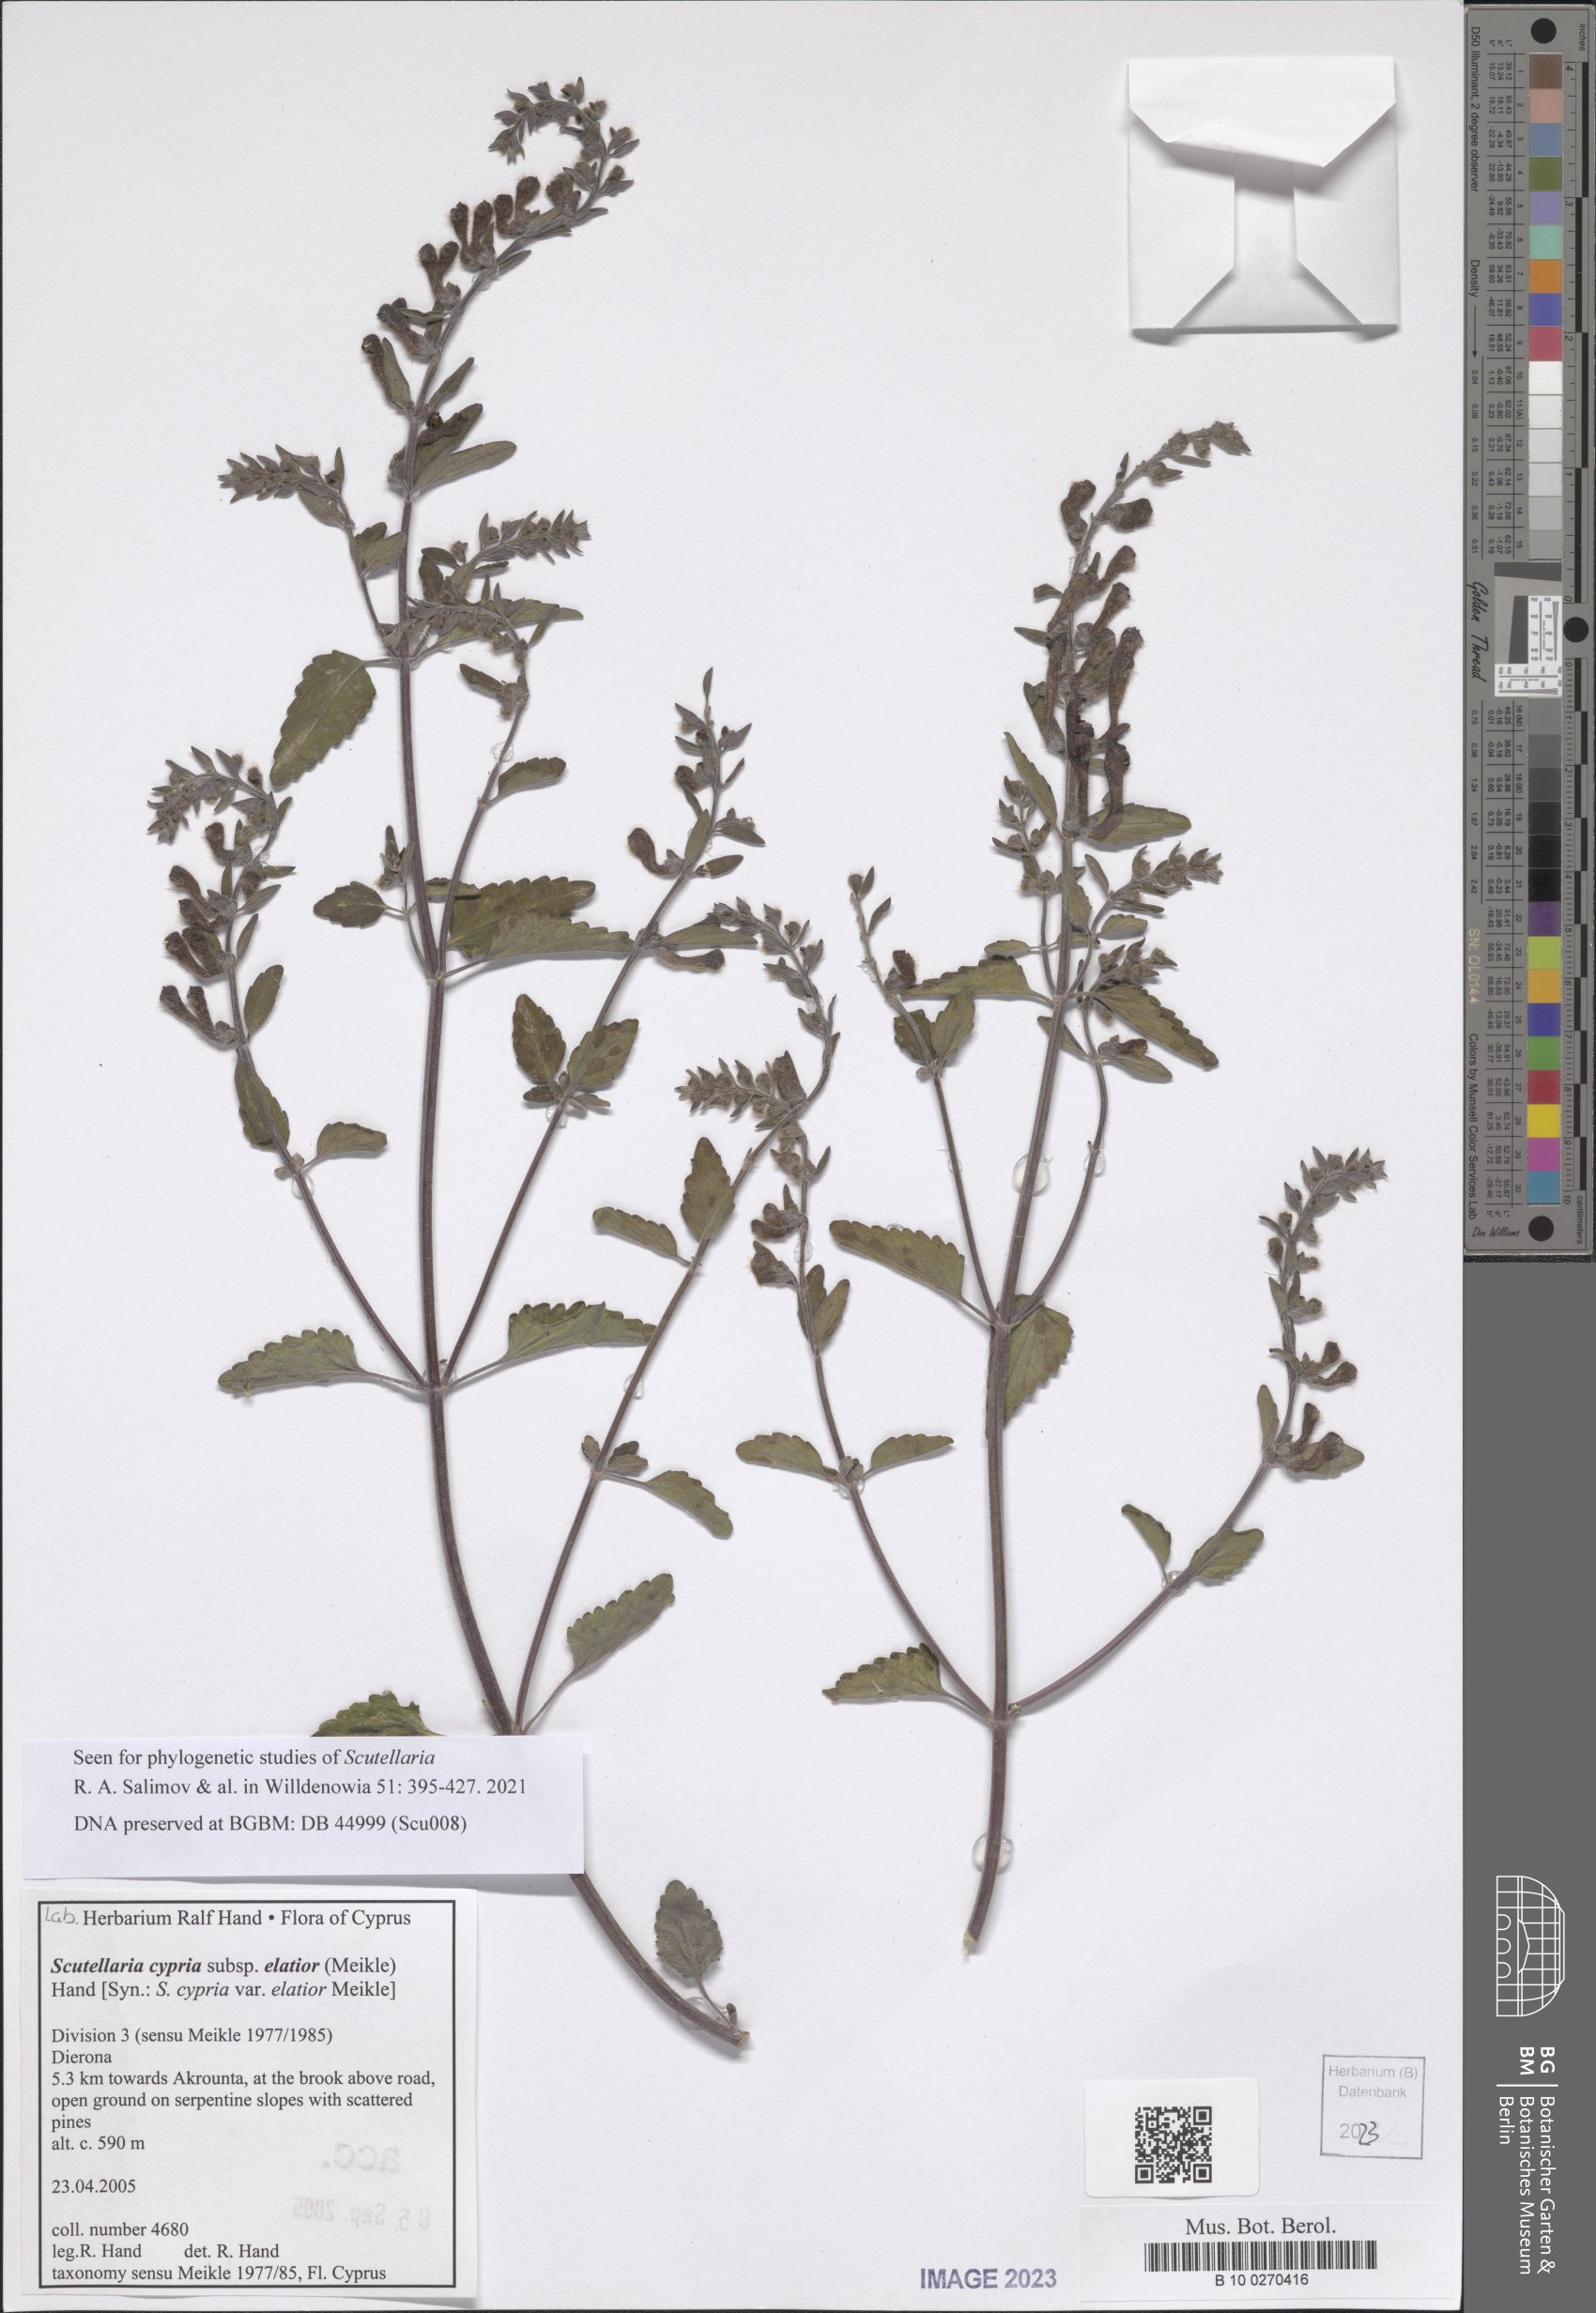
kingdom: Plantae
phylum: Tracheophyta
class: Magnoliopsida
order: Lamiales
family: Lamiaceae
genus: Scutellaria
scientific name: Scutellaria cypria
